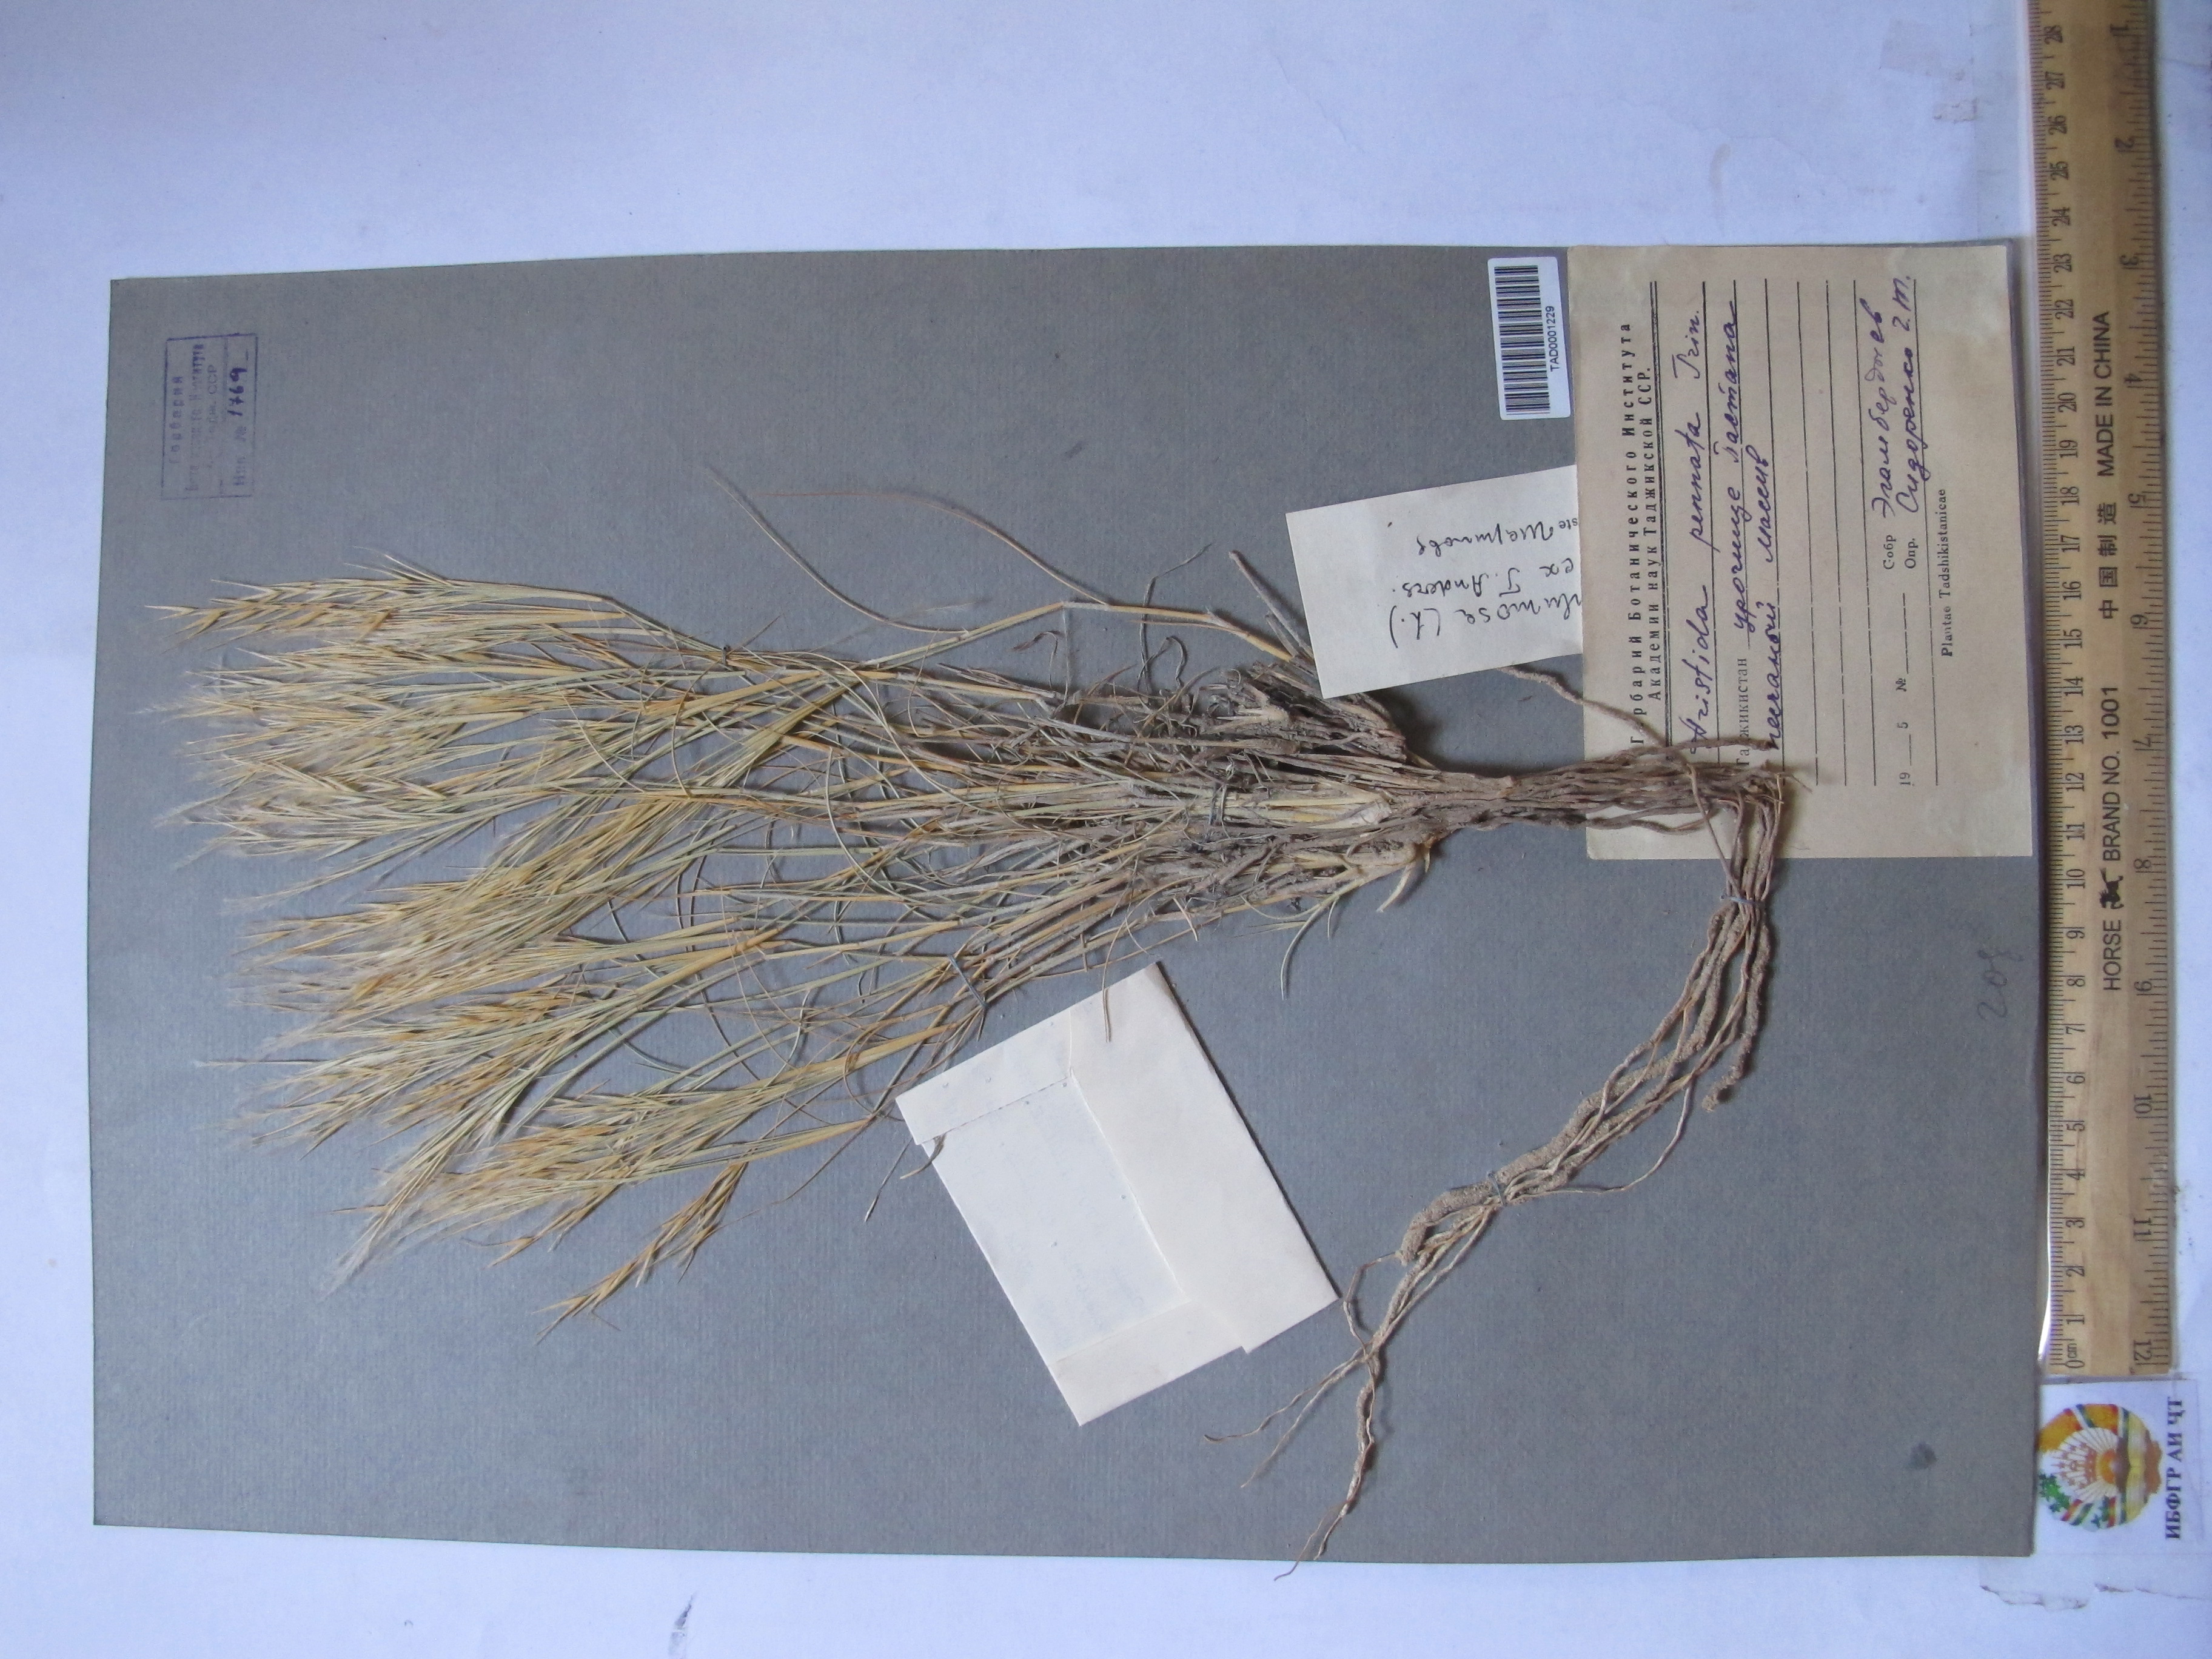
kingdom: Plantae
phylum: Tracheophyta
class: Liliopsida
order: Poales
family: Poaceae
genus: Stipagrostis
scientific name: Stipagrostis plumosa
